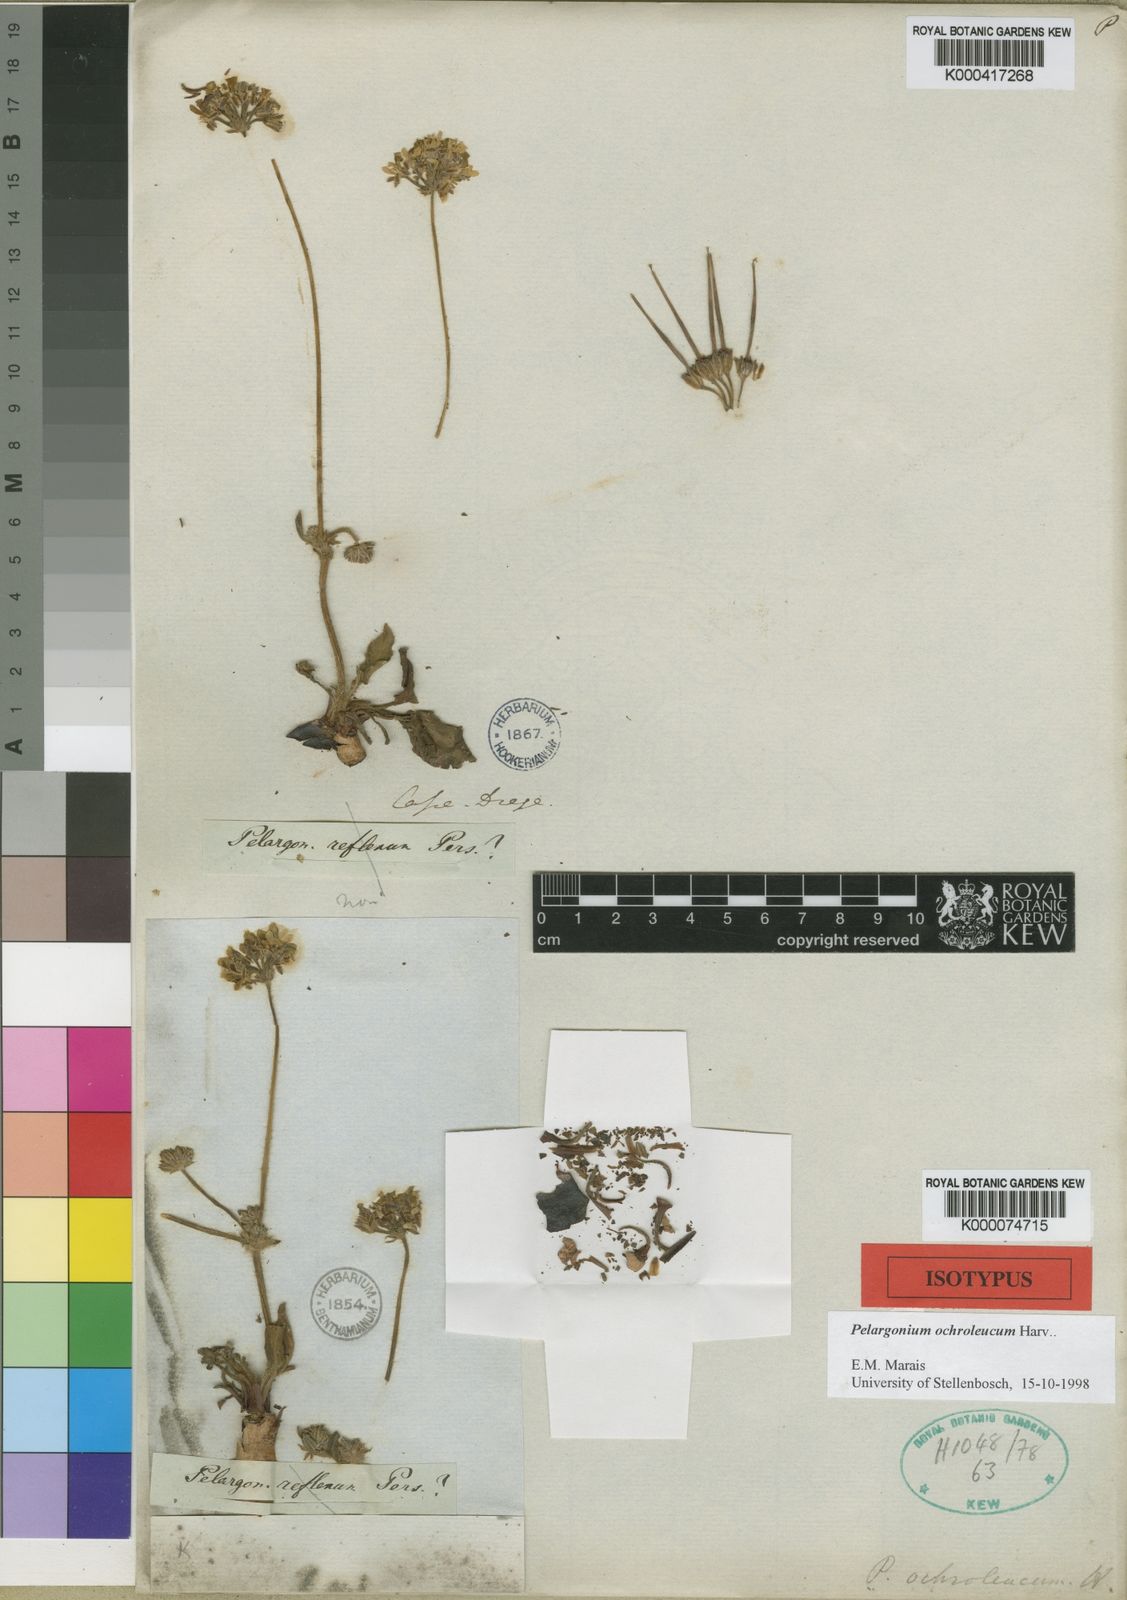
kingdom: Plantae
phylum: Tracheophyta
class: Magnoliopsida
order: Geraniales
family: Geraniaceae
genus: Pelargonium
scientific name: Pelargonium ochroleucum
